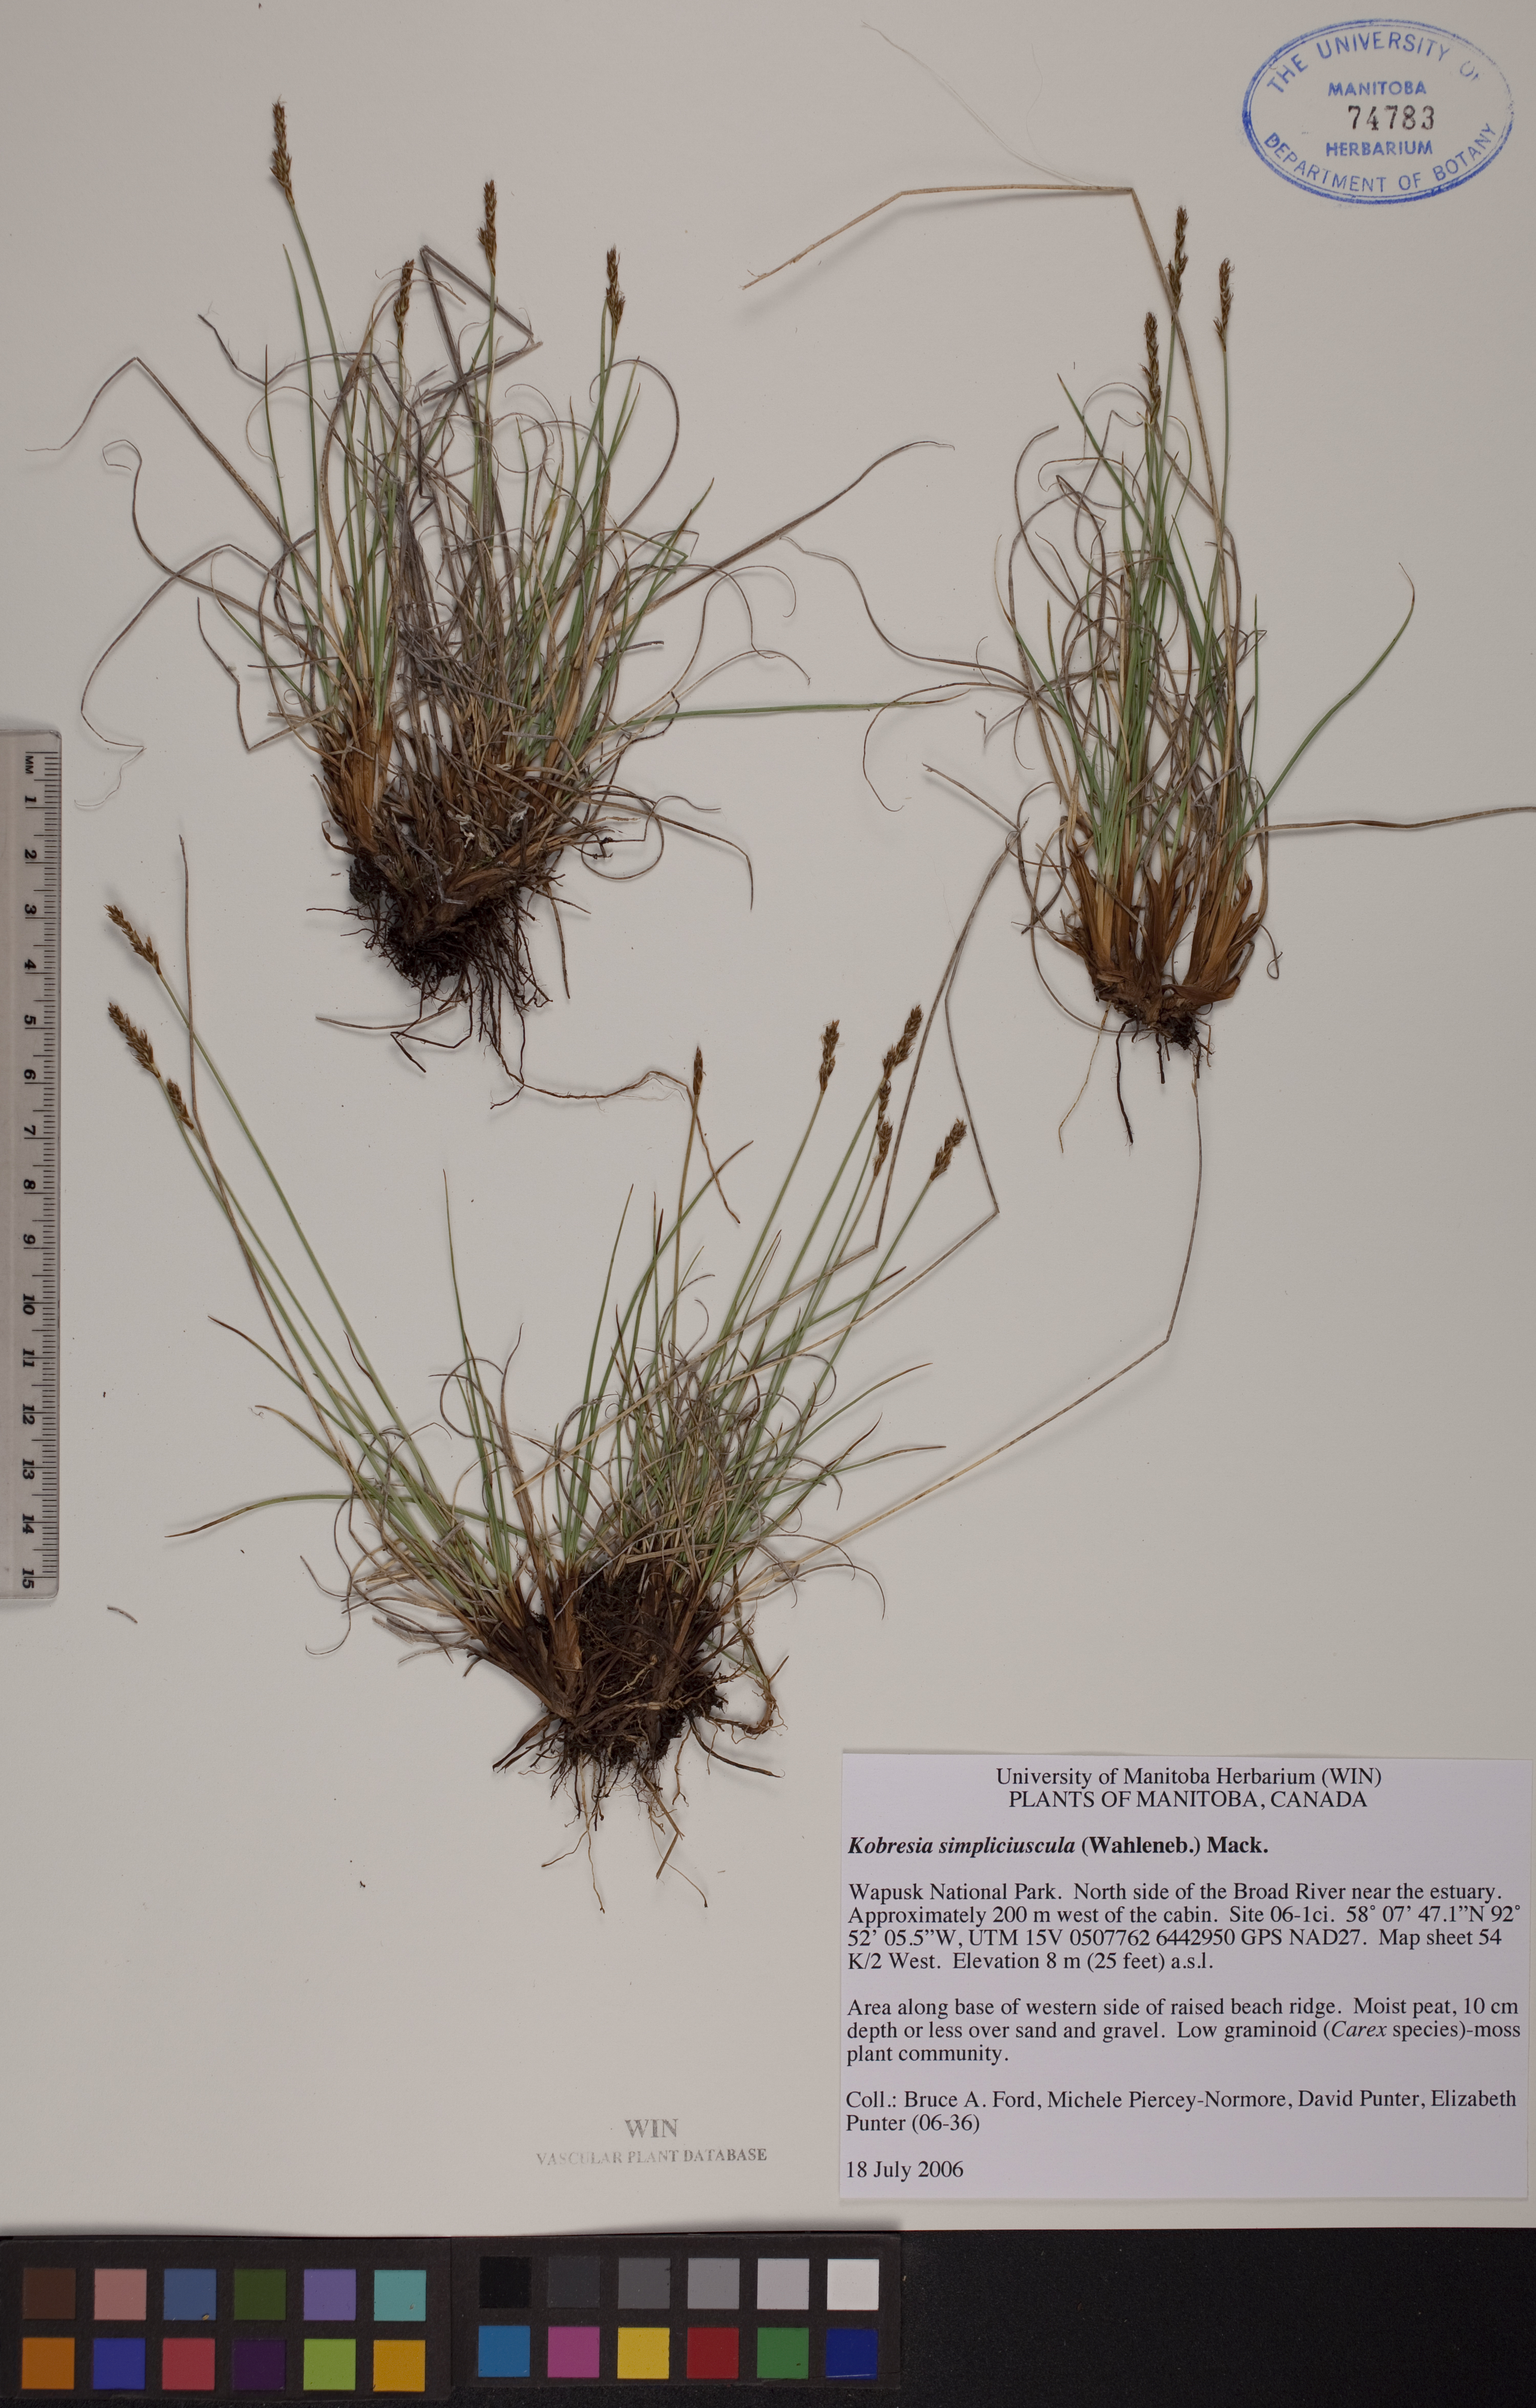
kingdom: Plantae
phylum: Tracheophyta
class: Liliopsida
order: Poales
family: Cyperaceae
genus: Carex
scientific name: Carex simpliciuscula
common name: Simple bog sedge
